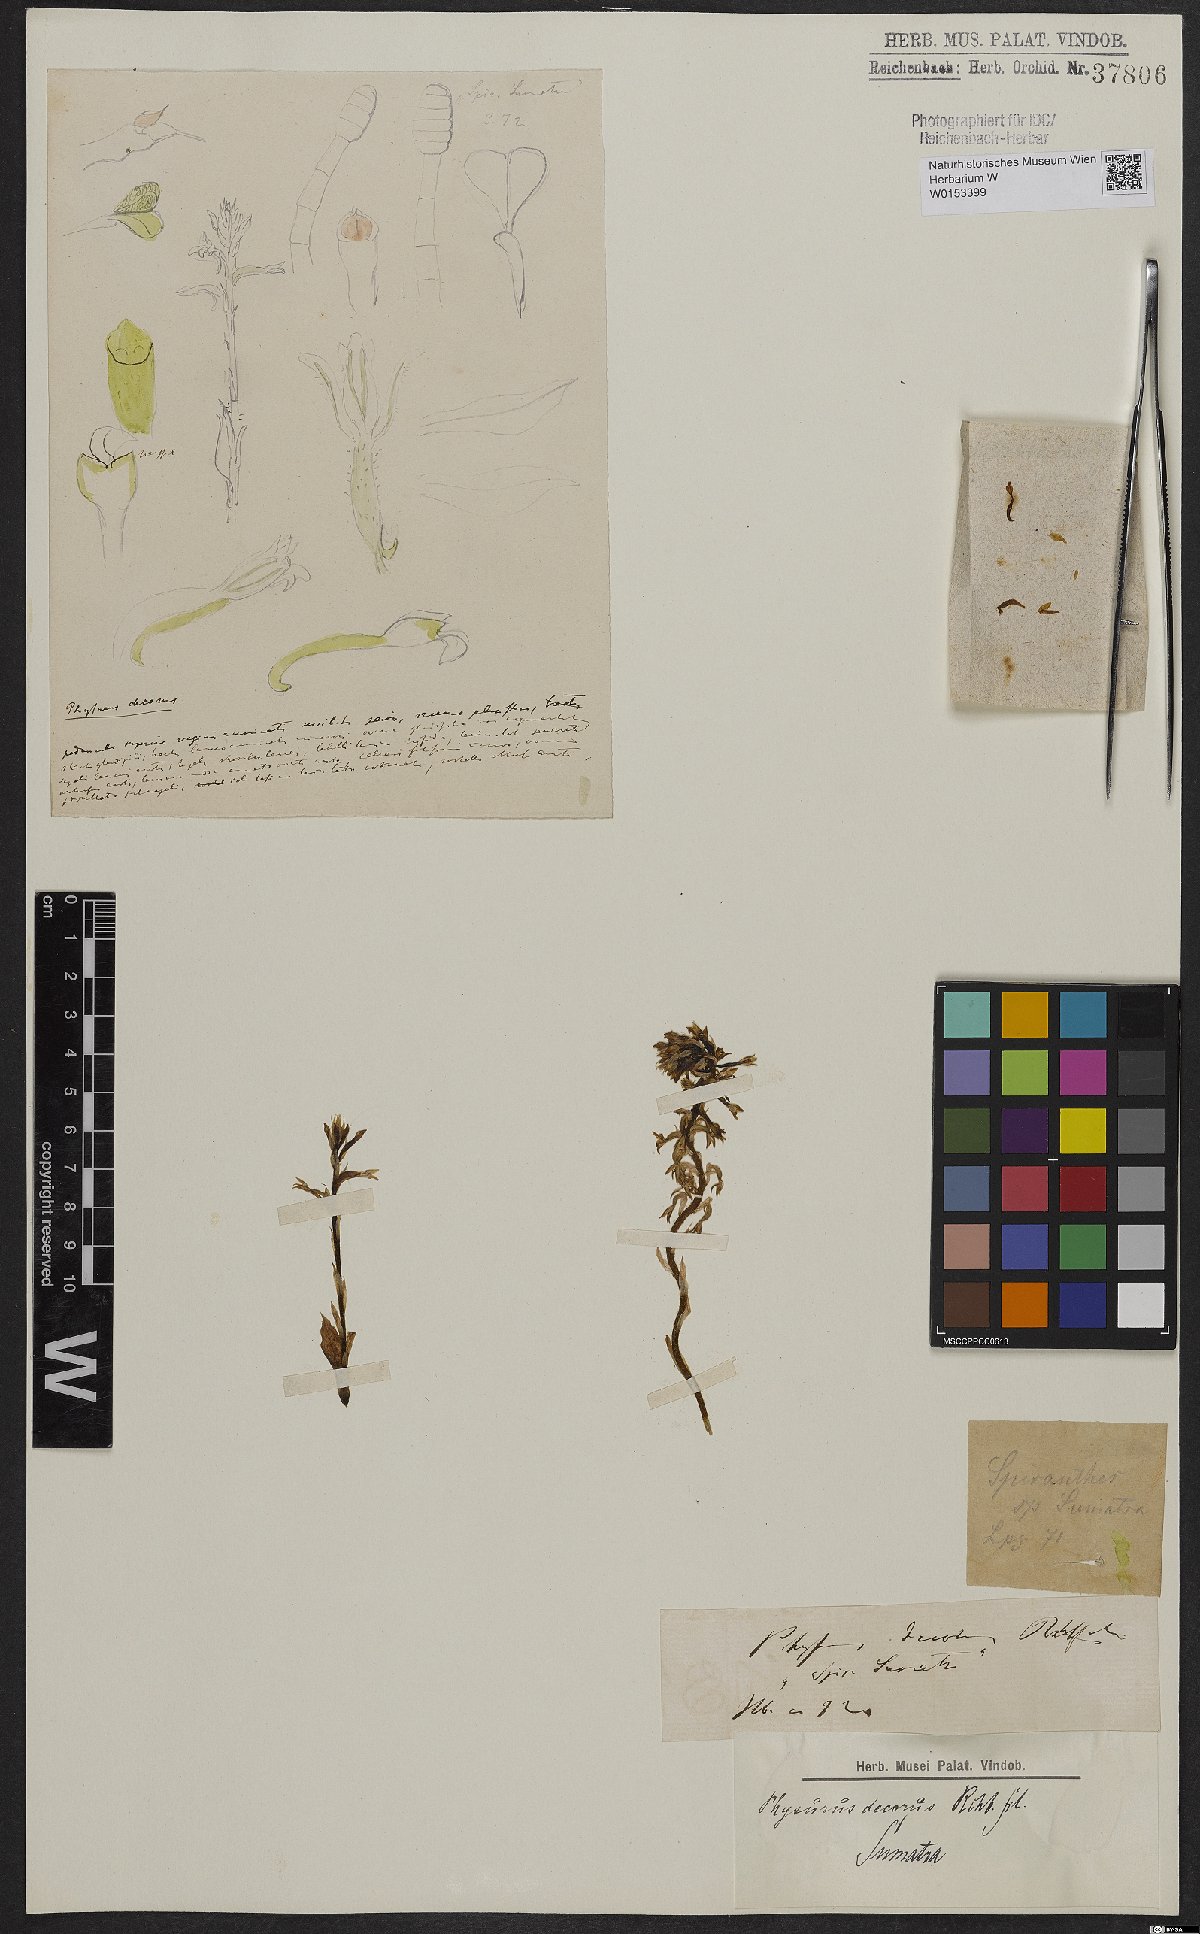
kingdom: Plantae
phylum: Tracheophyta
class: Liliopsida
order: Asparagales
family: Orchidaceae
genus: Aspidogyne
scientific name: Aspidogyne decora
